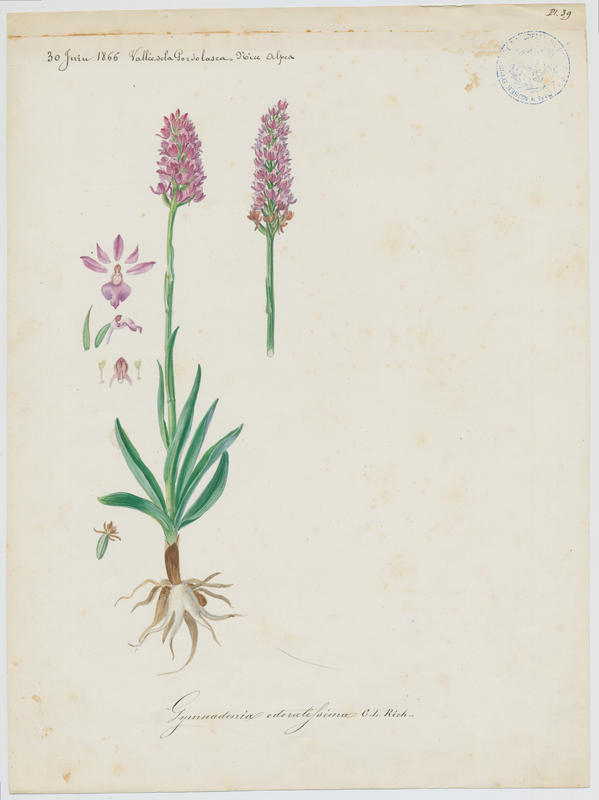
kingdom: Plantae
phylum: Tracheophyta
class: Liliopsida
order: Asparagales
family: Orchidaceae
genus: Gymnadenia
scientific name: Gymnadenia odoratissima
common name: Scented gymnadenia
